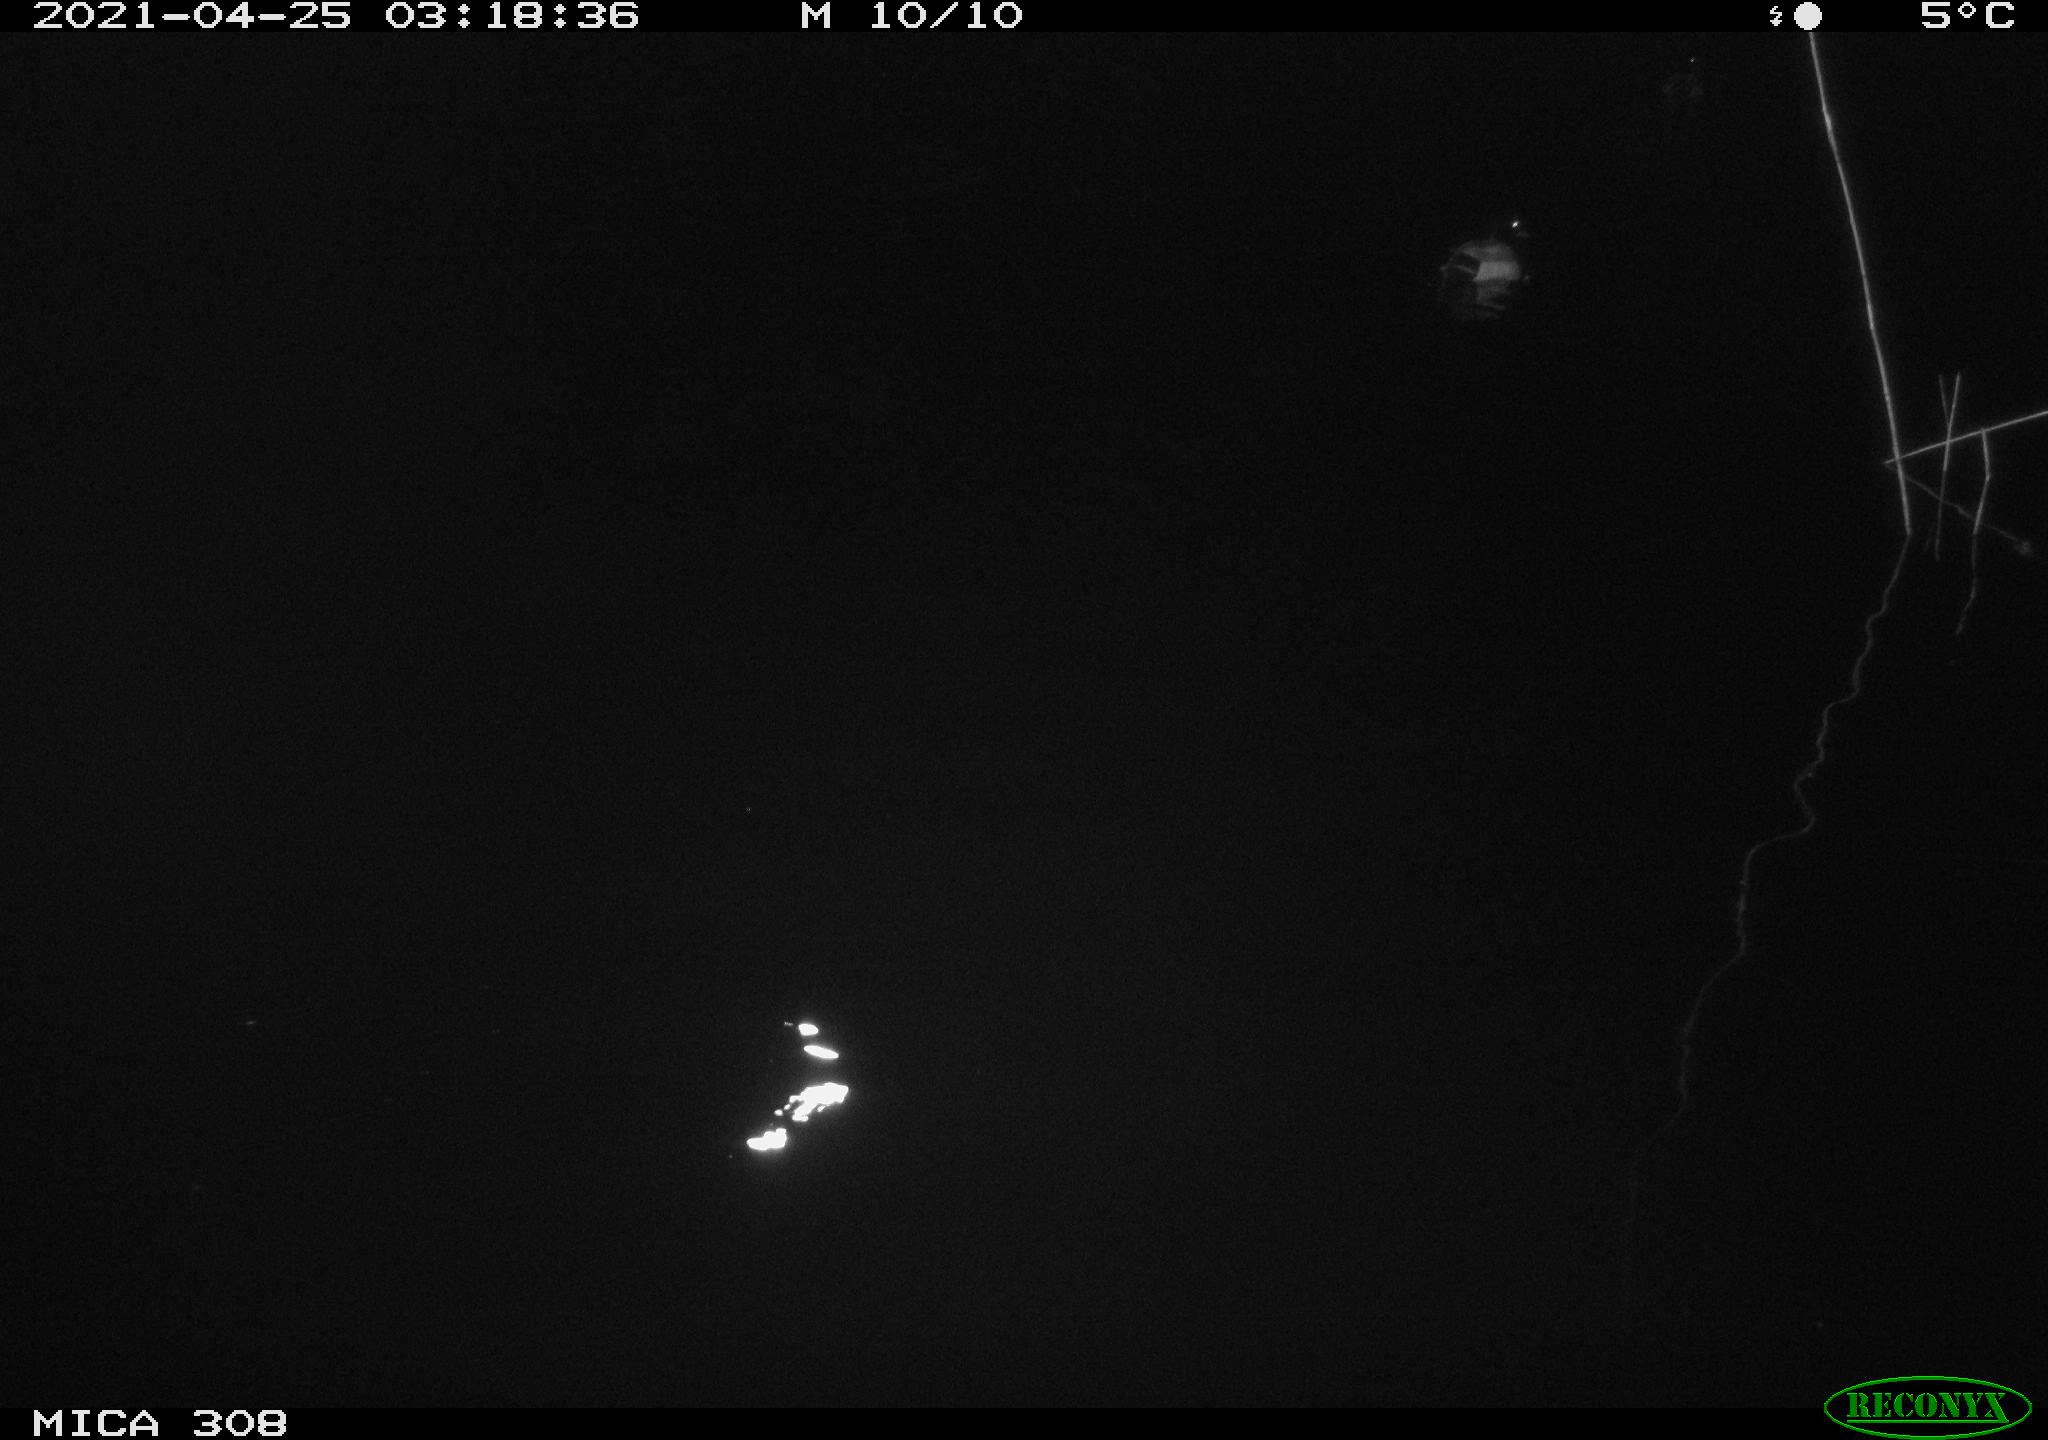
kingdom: Animalia
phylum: Chordata
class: Aves
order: Anseriformes
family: Anatidae
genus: Anas
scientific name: Anas platyrhynchos
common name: Mallard
